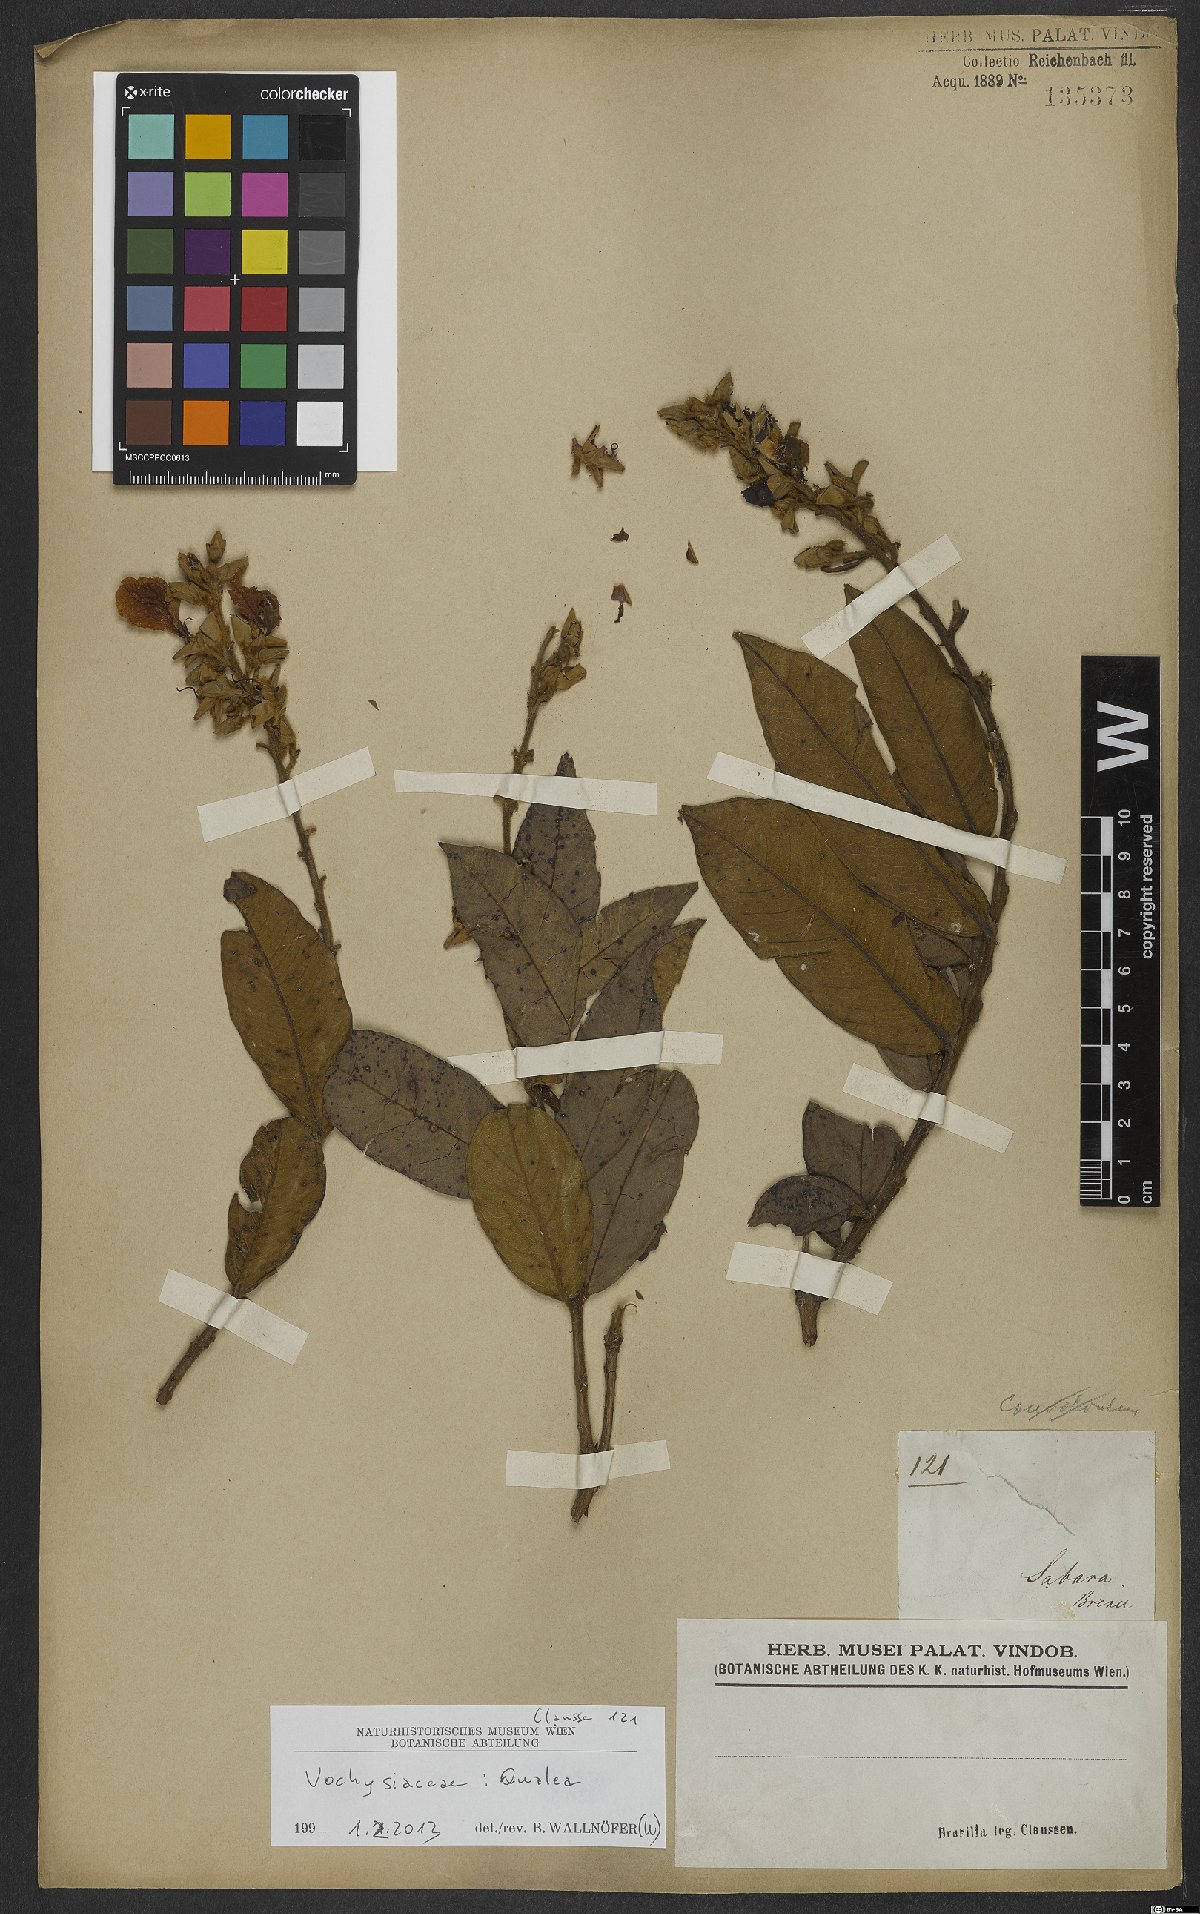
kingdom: Plantae
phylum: Tracheophyta
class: Magnoliopsida
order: Myrtales
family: Vochysiaceae
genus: Qualea
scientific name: Qualea
